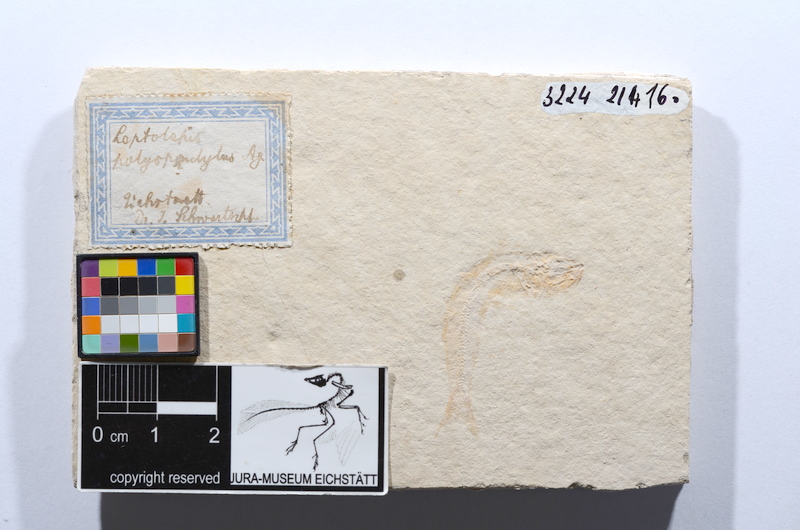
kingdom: Animalia
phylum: Chordata
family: Allothrissopidae
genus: Allothrissops
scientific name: Allothrissops mesogaster
